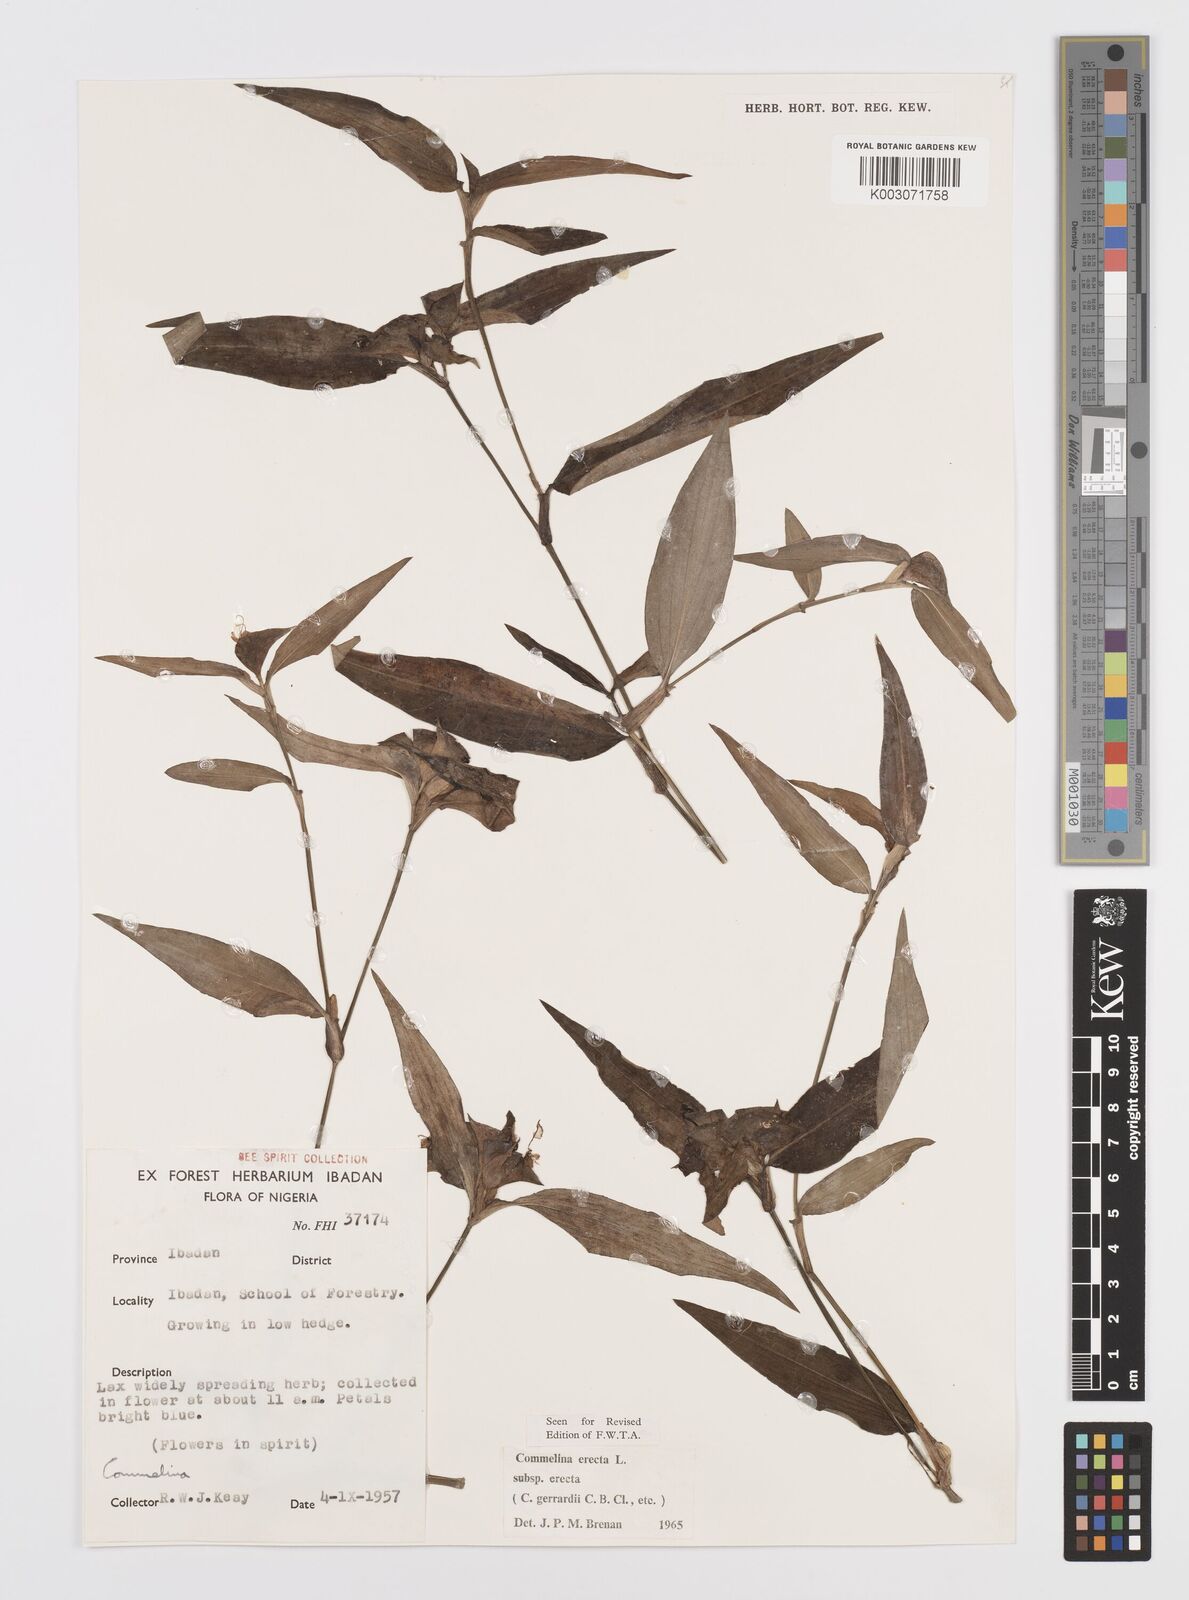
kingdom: Plantae
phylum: Tracheophyta
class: Liliopsida
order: Commelinales
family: Commelinaceae
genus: Commelina
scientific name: Commelina erecta
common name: Blousel blommetjie
